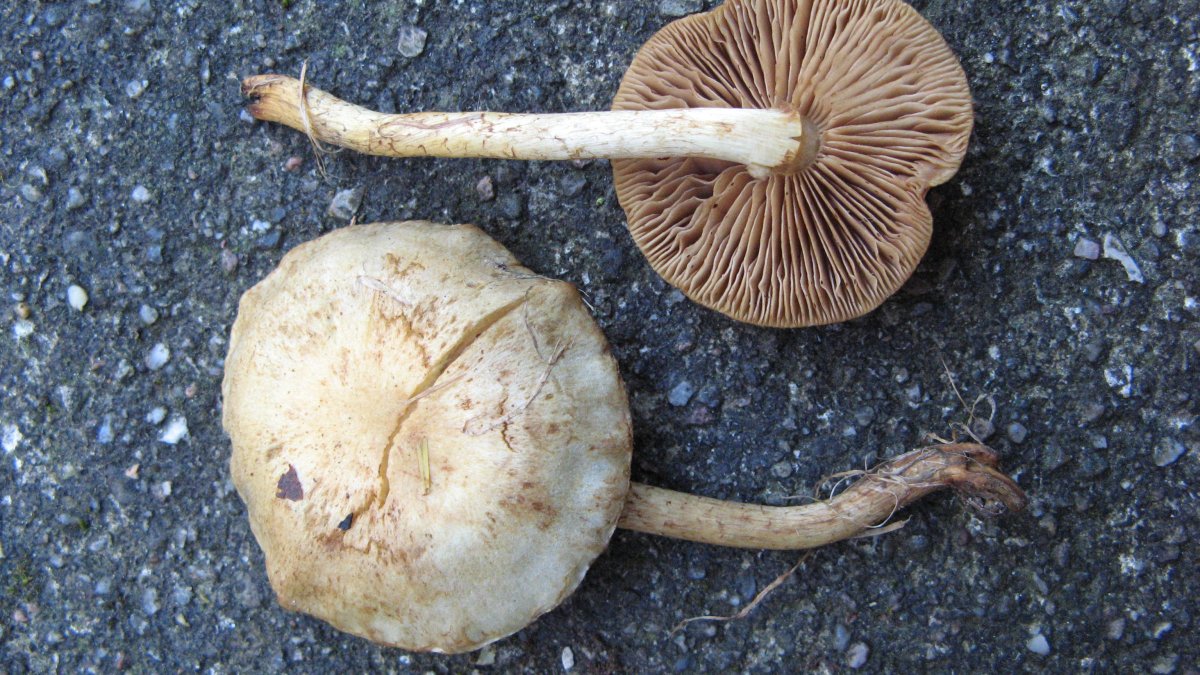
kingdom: Fungi
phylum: Basidiomycota
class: Agaricomycetes
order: Agaricales
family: Strophariaceae
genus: Pholiota
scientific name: Pholiota gummosa
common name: grøngul skælhat
